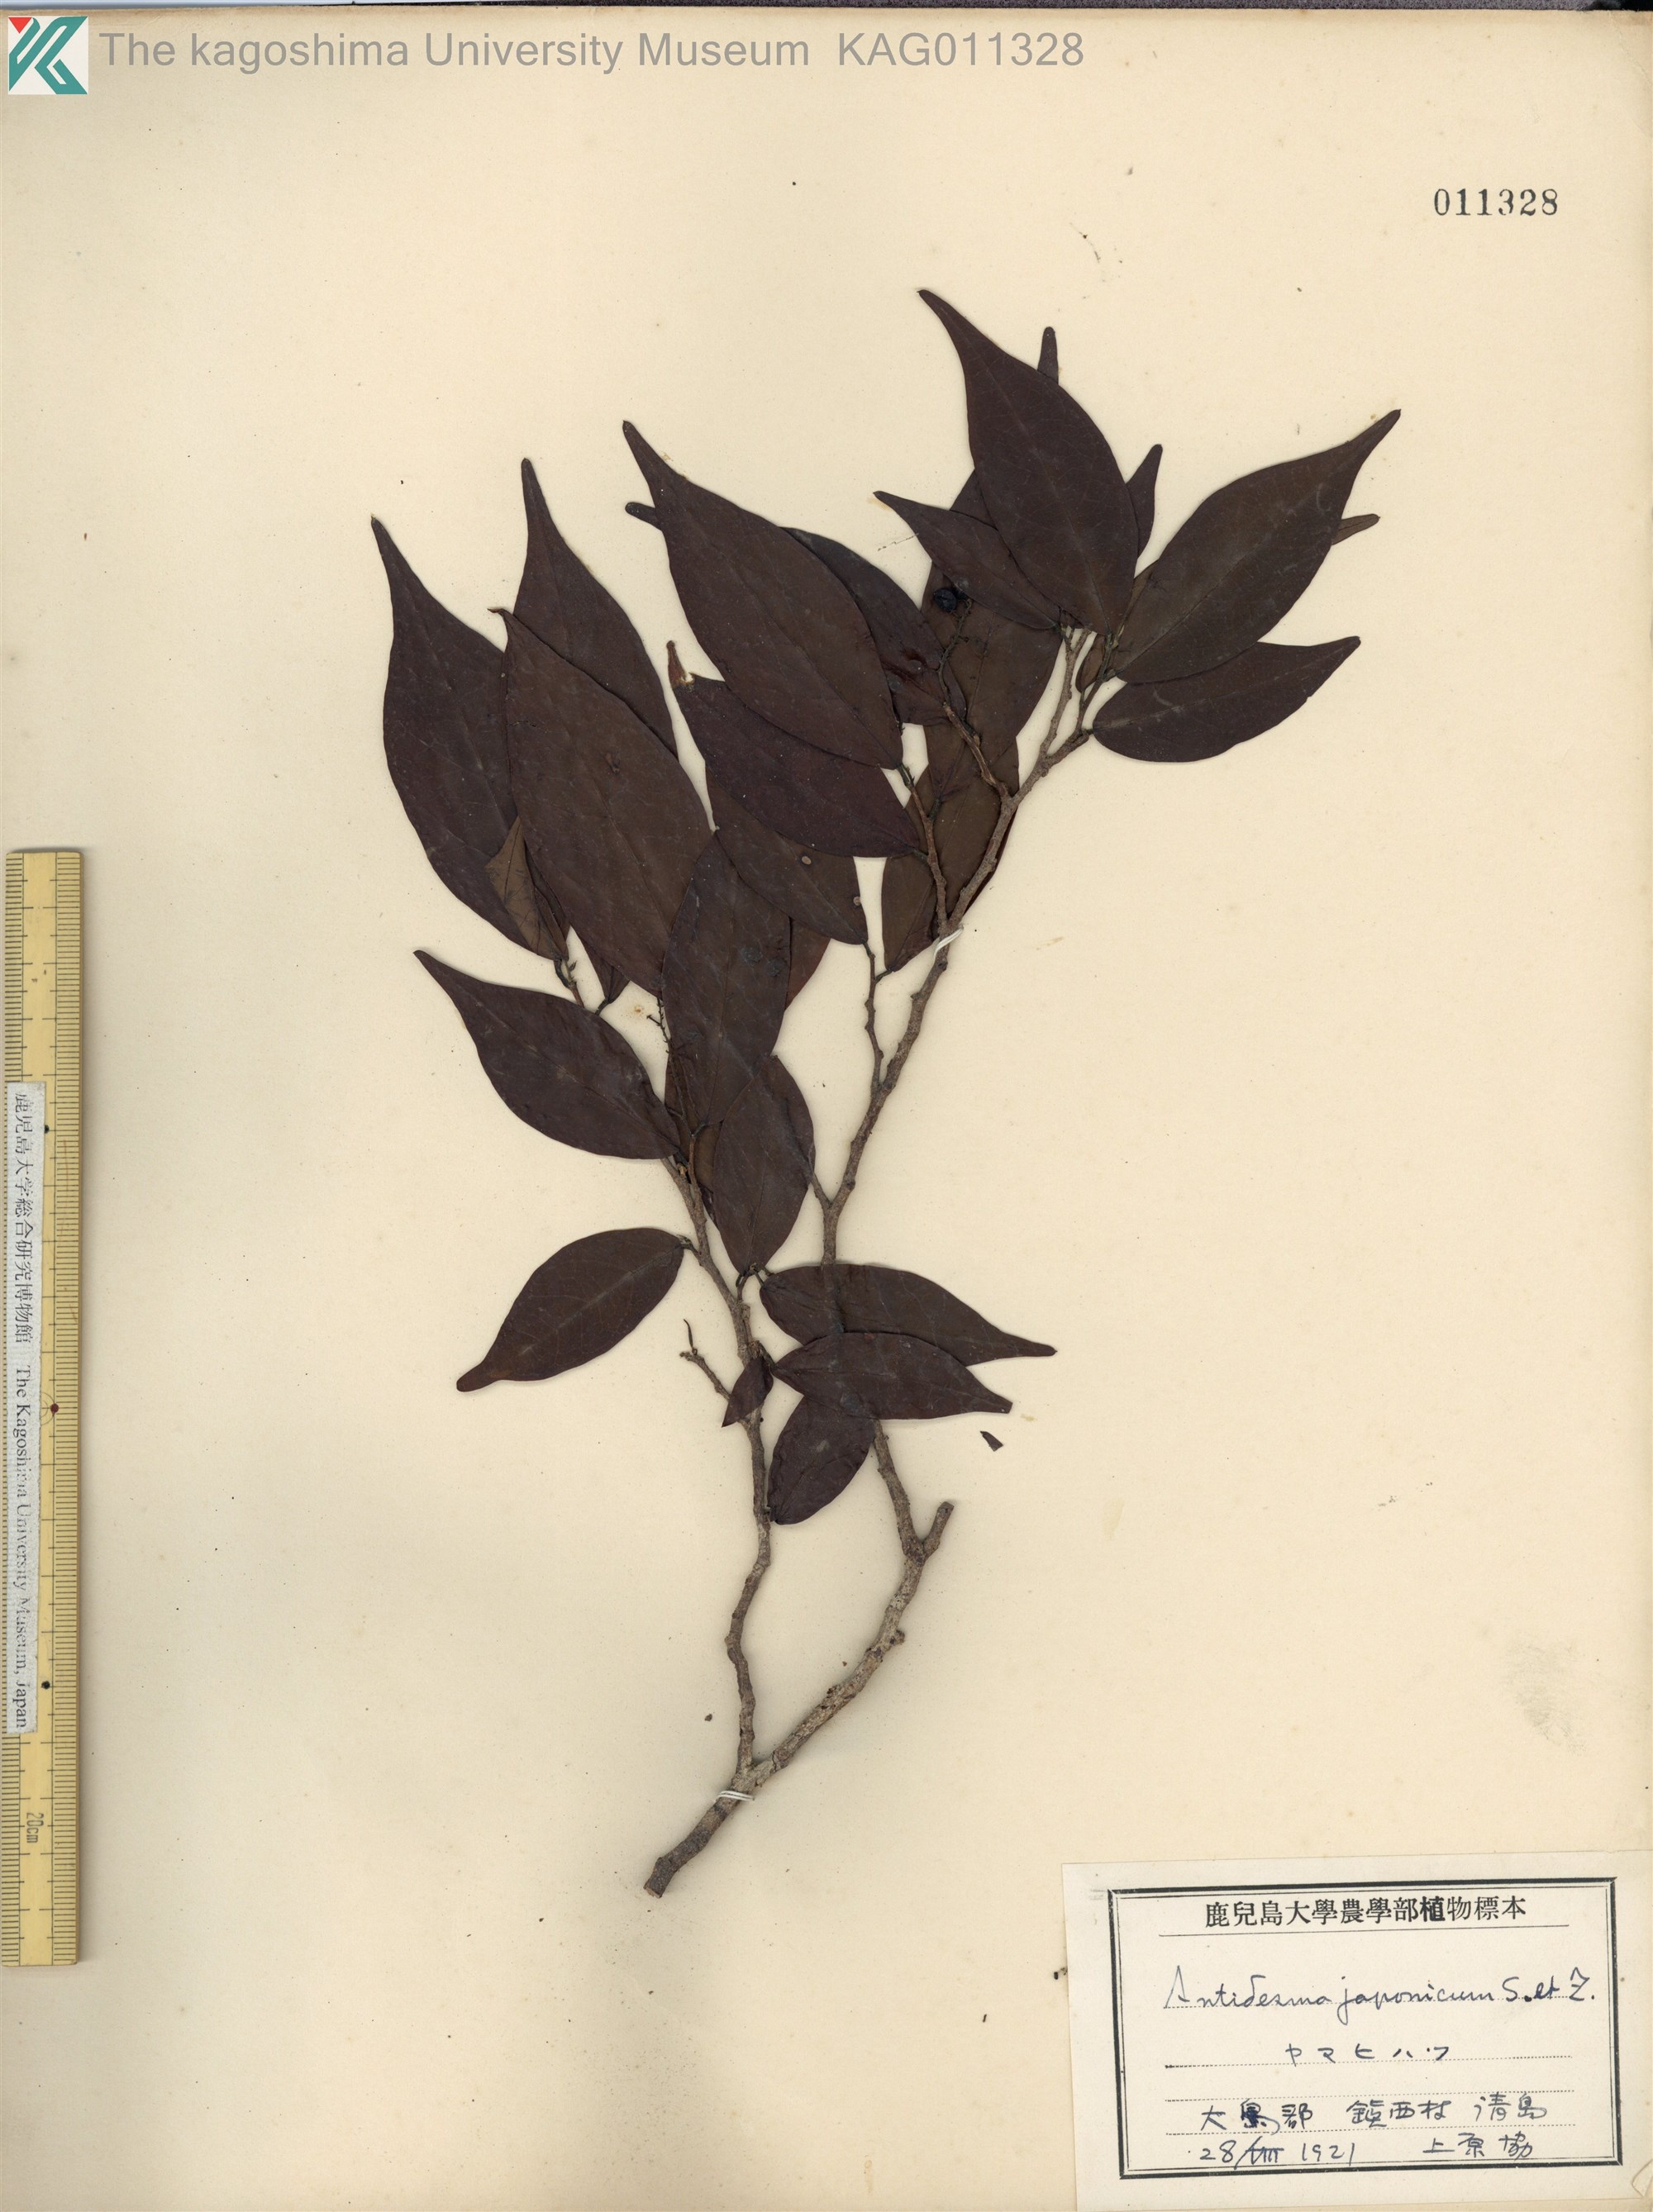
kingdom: Plantae
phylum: Tracheophyta
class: Magnoliopsida
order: Malpighiales
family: Phyllanthaceae
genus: Antidesma
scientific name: Antidesma japonicum
